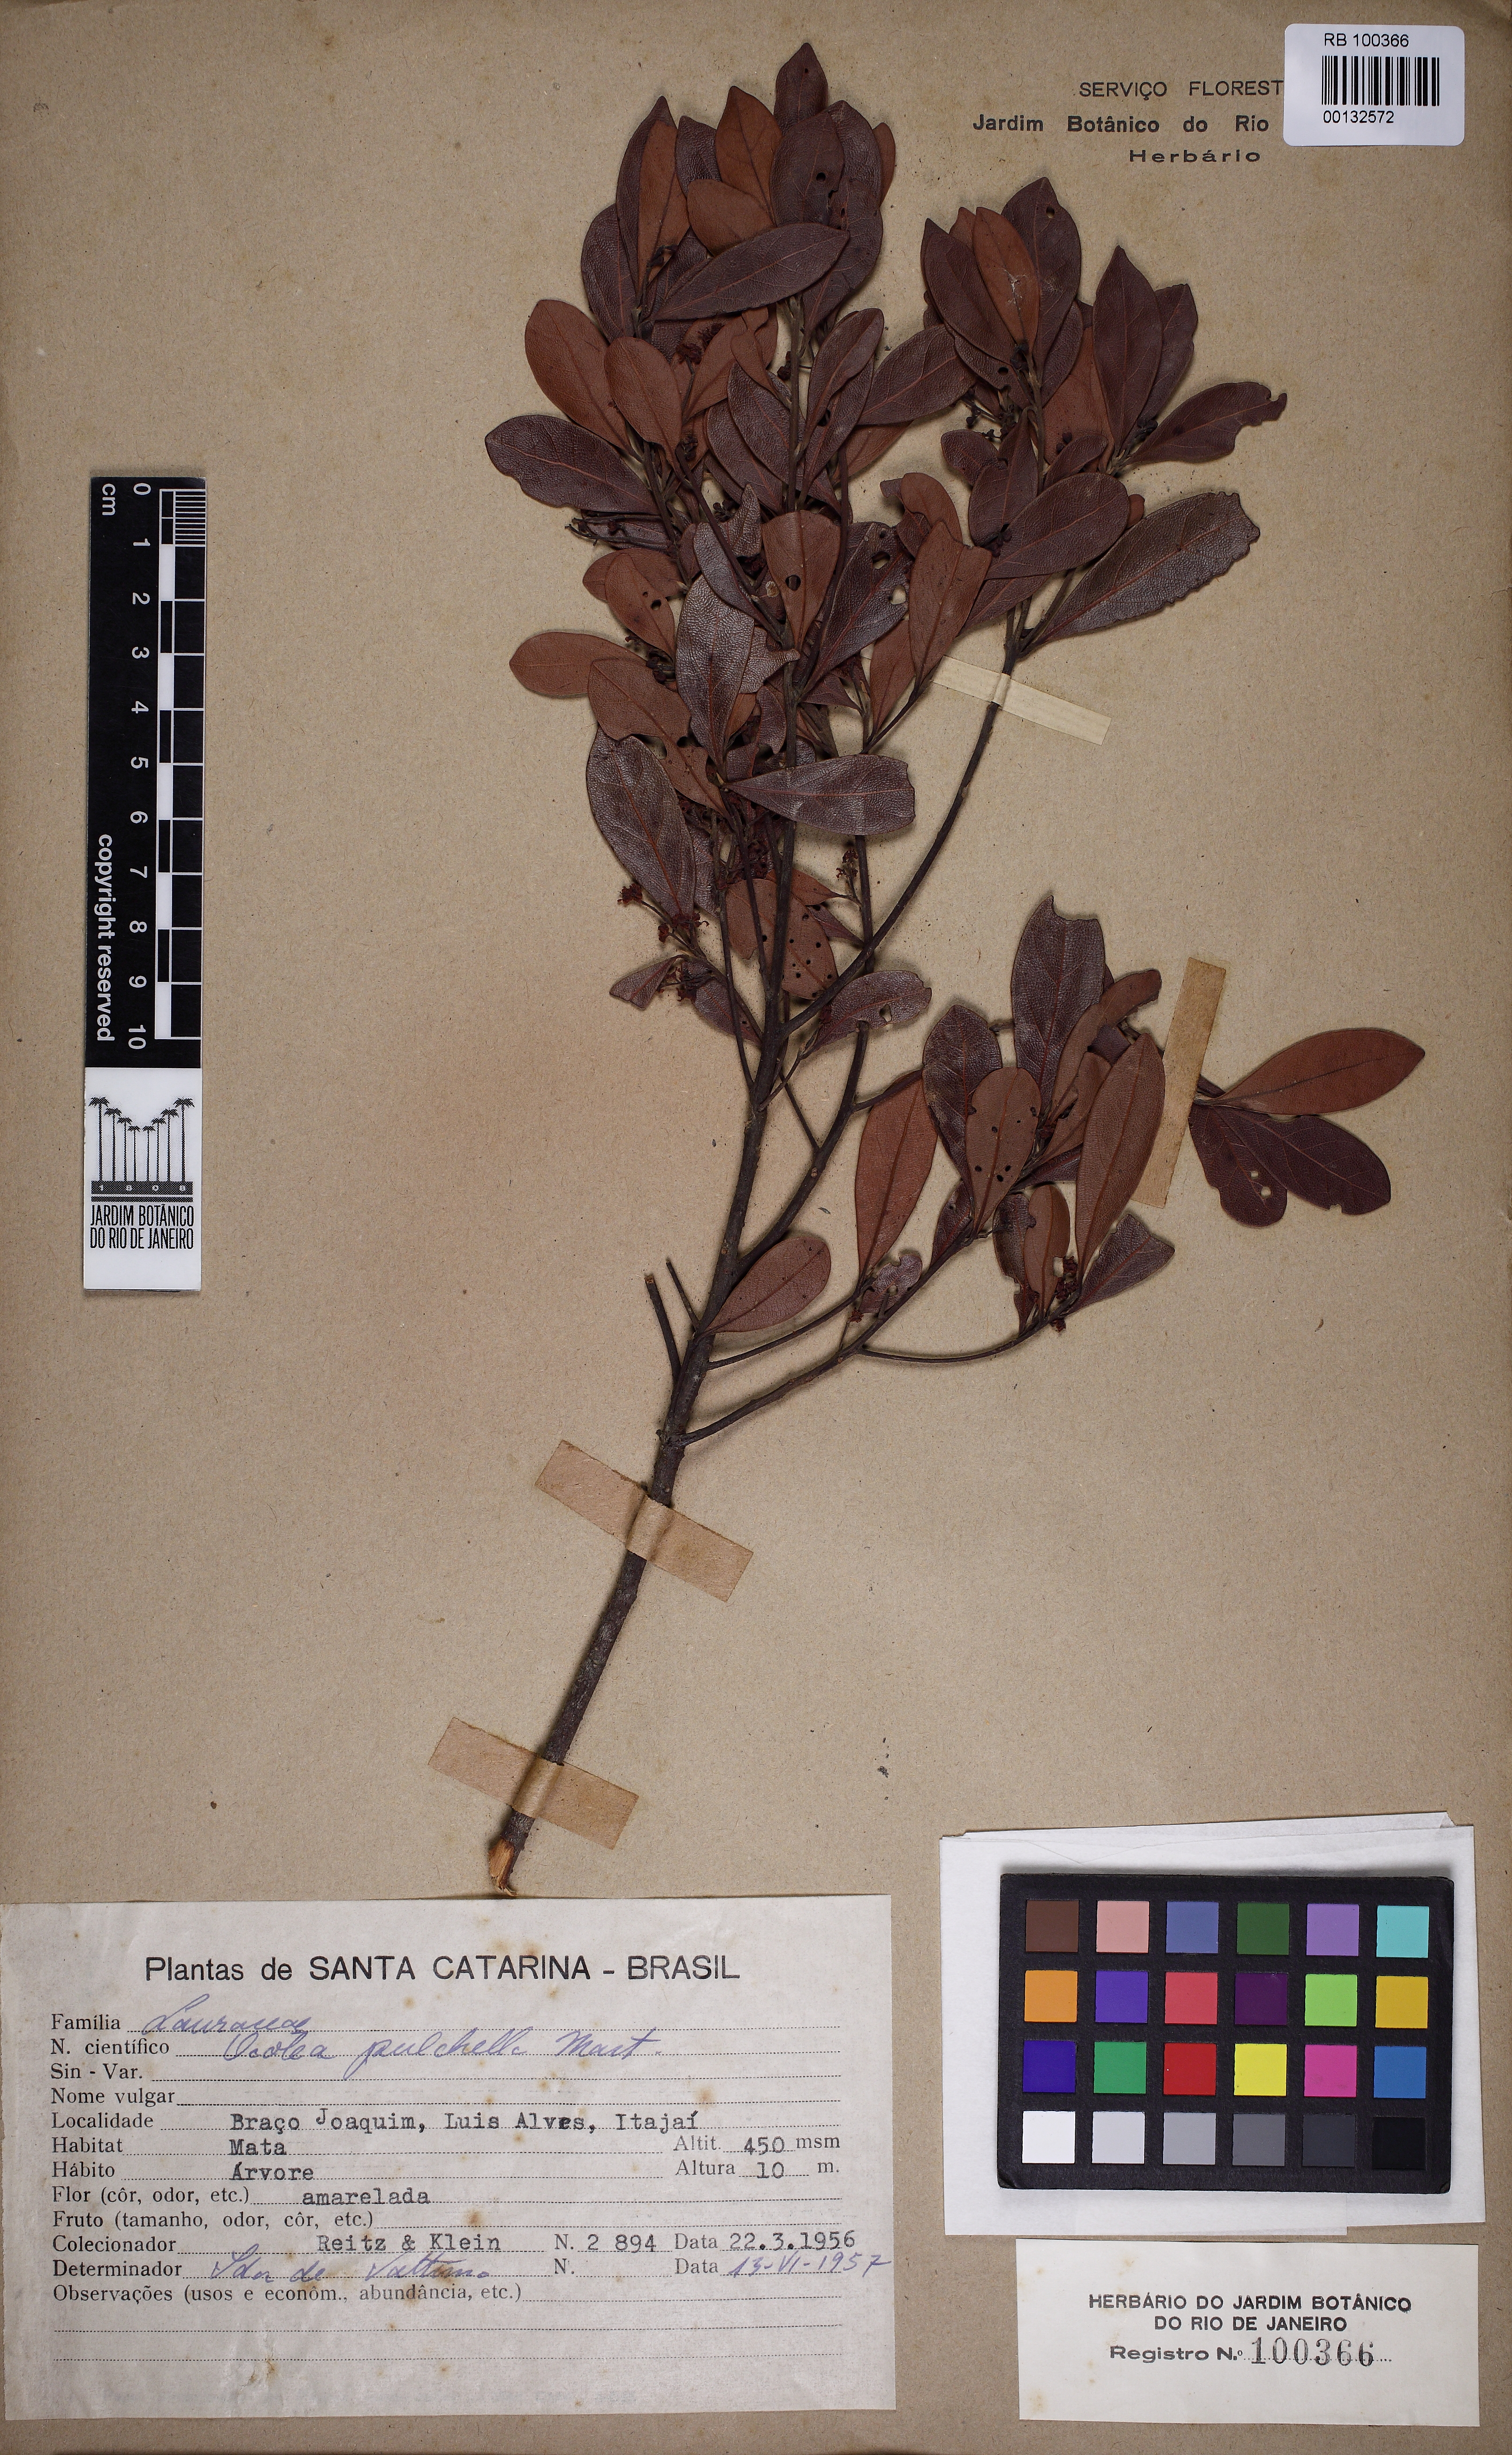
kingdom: Plantae
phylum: Tracheophyta
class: Magnoliopsida
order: Laurales
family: Lauraceae
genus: Mespilodaphne
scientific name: Mespilodaphne pulchella
